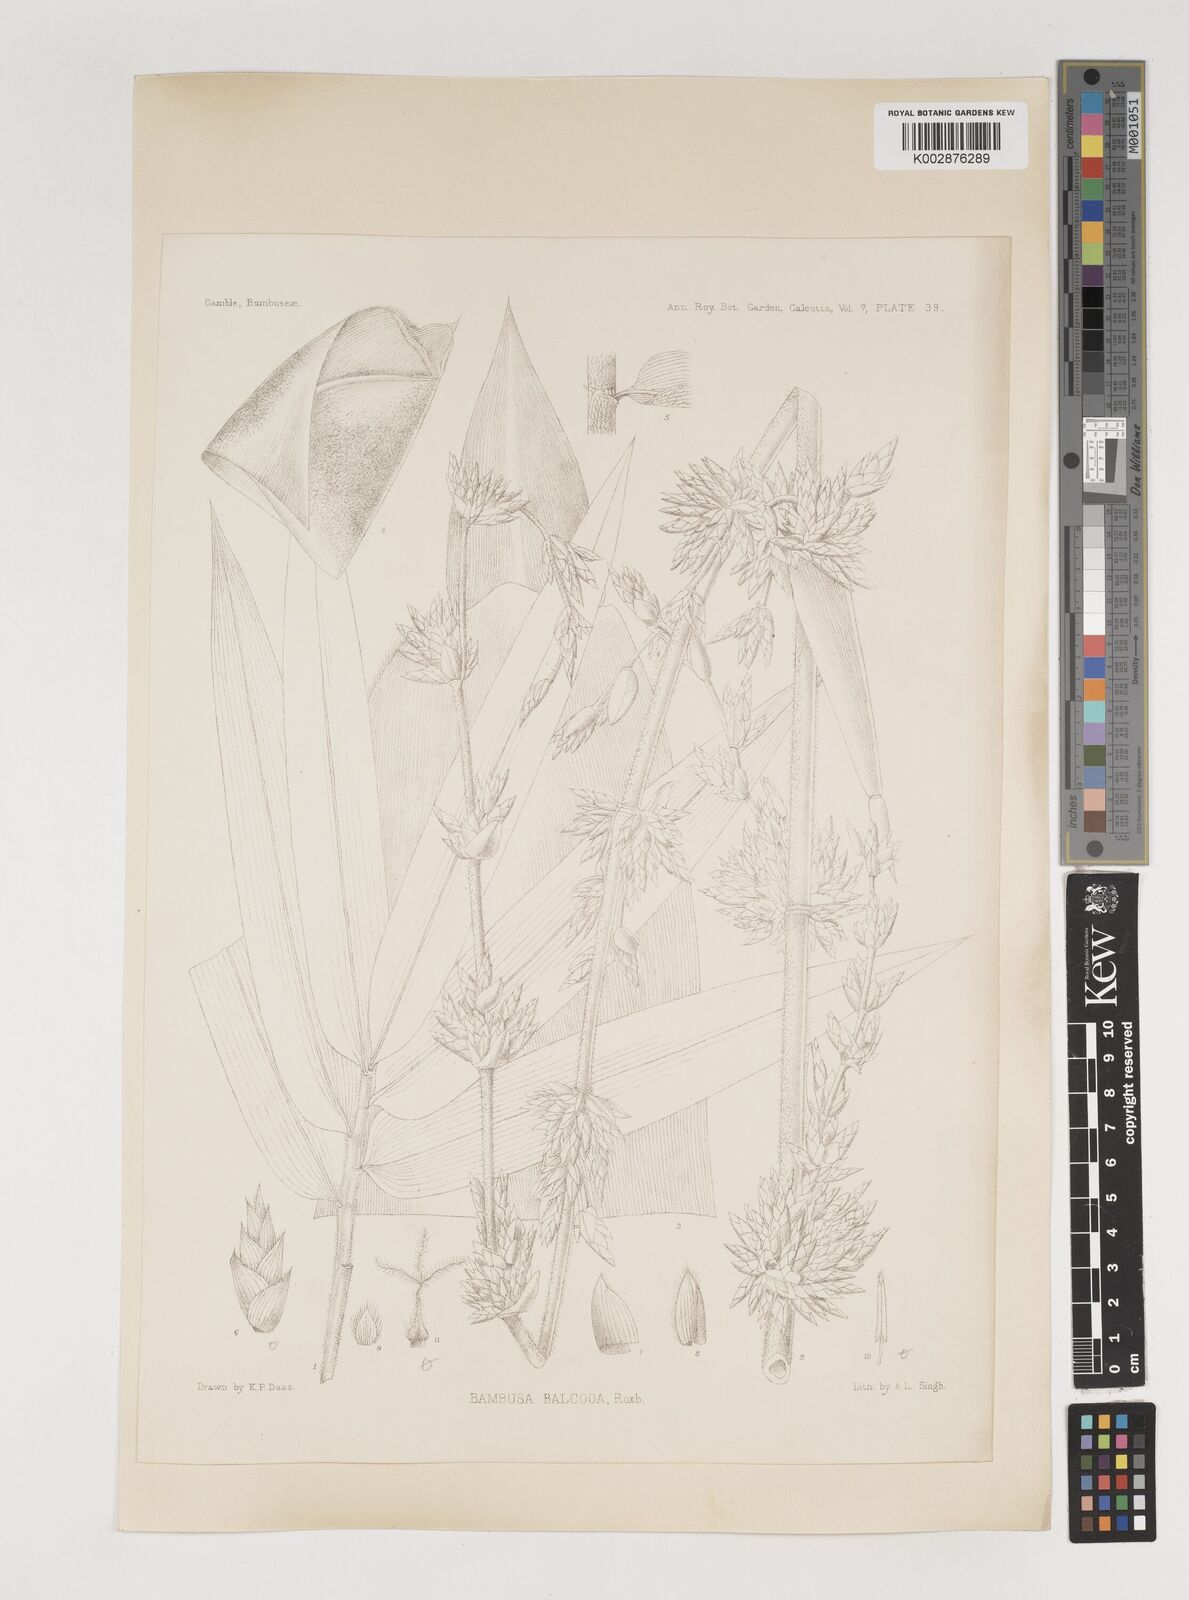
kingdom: Plantae
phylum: Tracheophyta
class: Liliopsida
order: Poales
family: Poaceae
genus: Bambusa
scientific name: Bambusa balcooa
